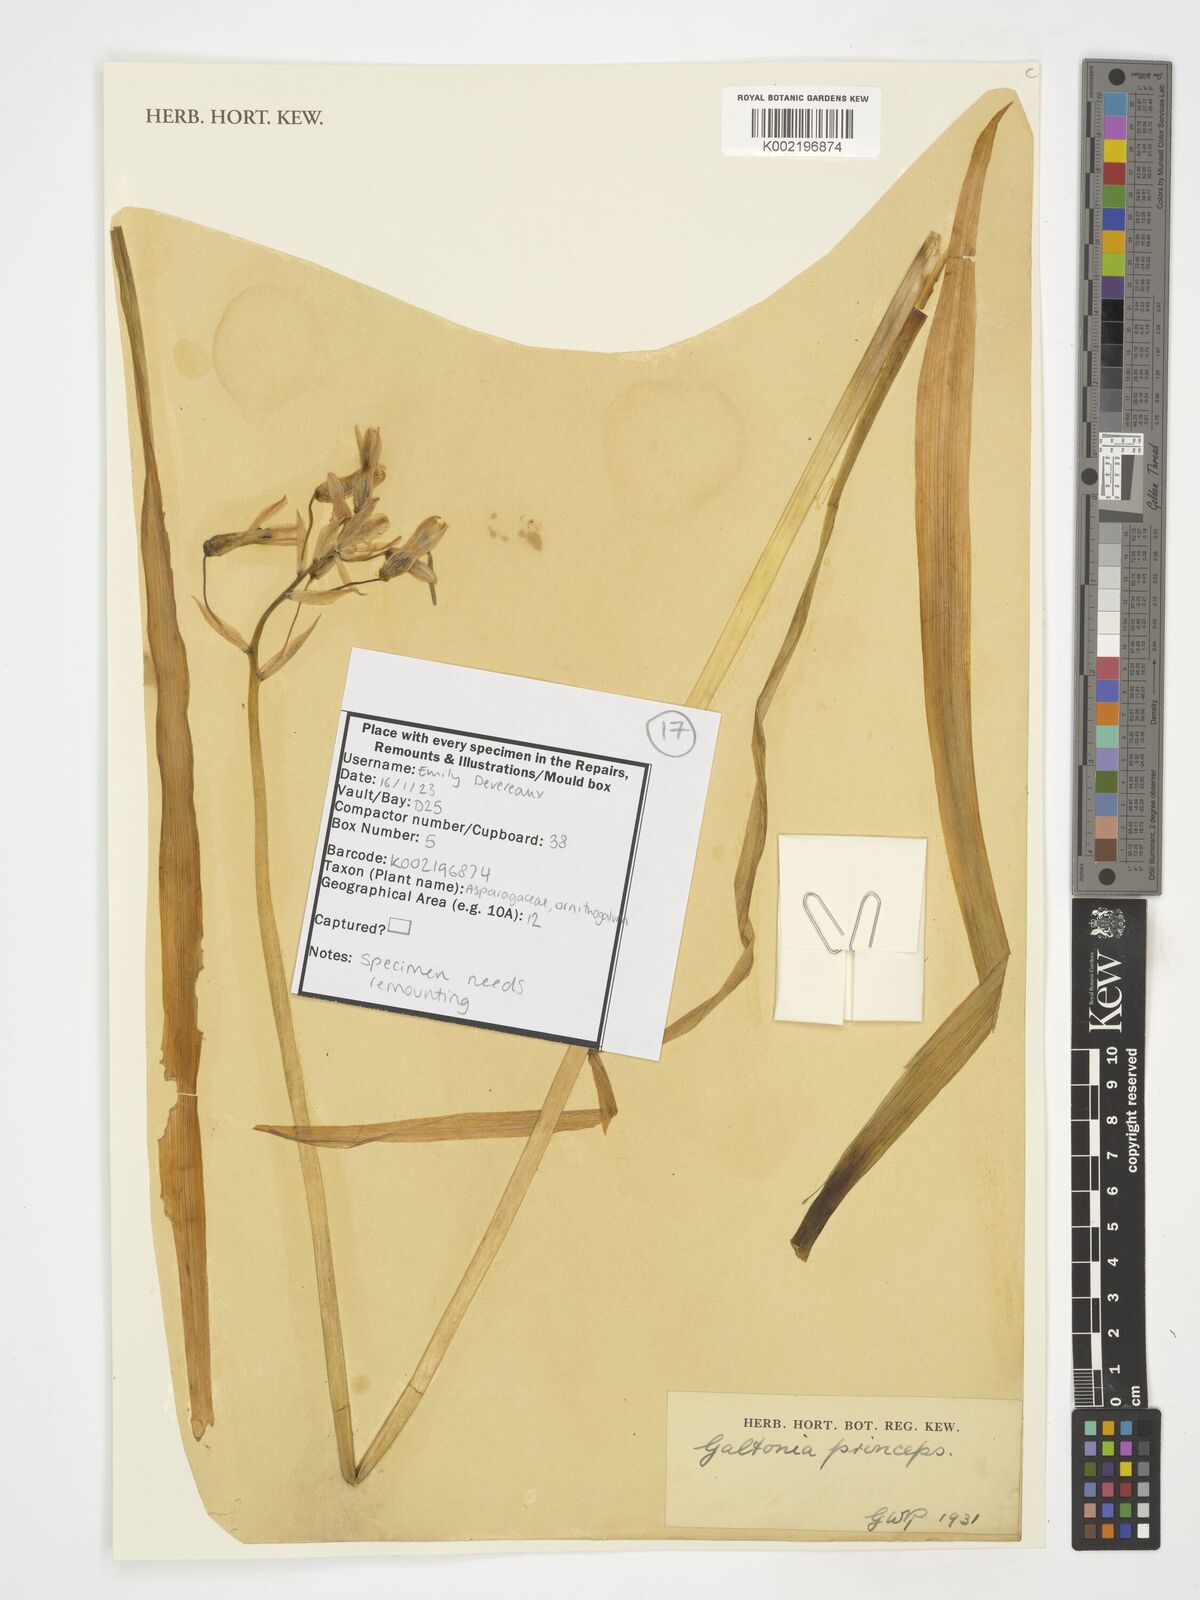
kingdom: Plantae
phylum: Tracheophyta
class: Liliopsida
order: Asparagales
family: Asparagaceae
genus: Ornithogalum
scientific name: Ornithogalum princeps
